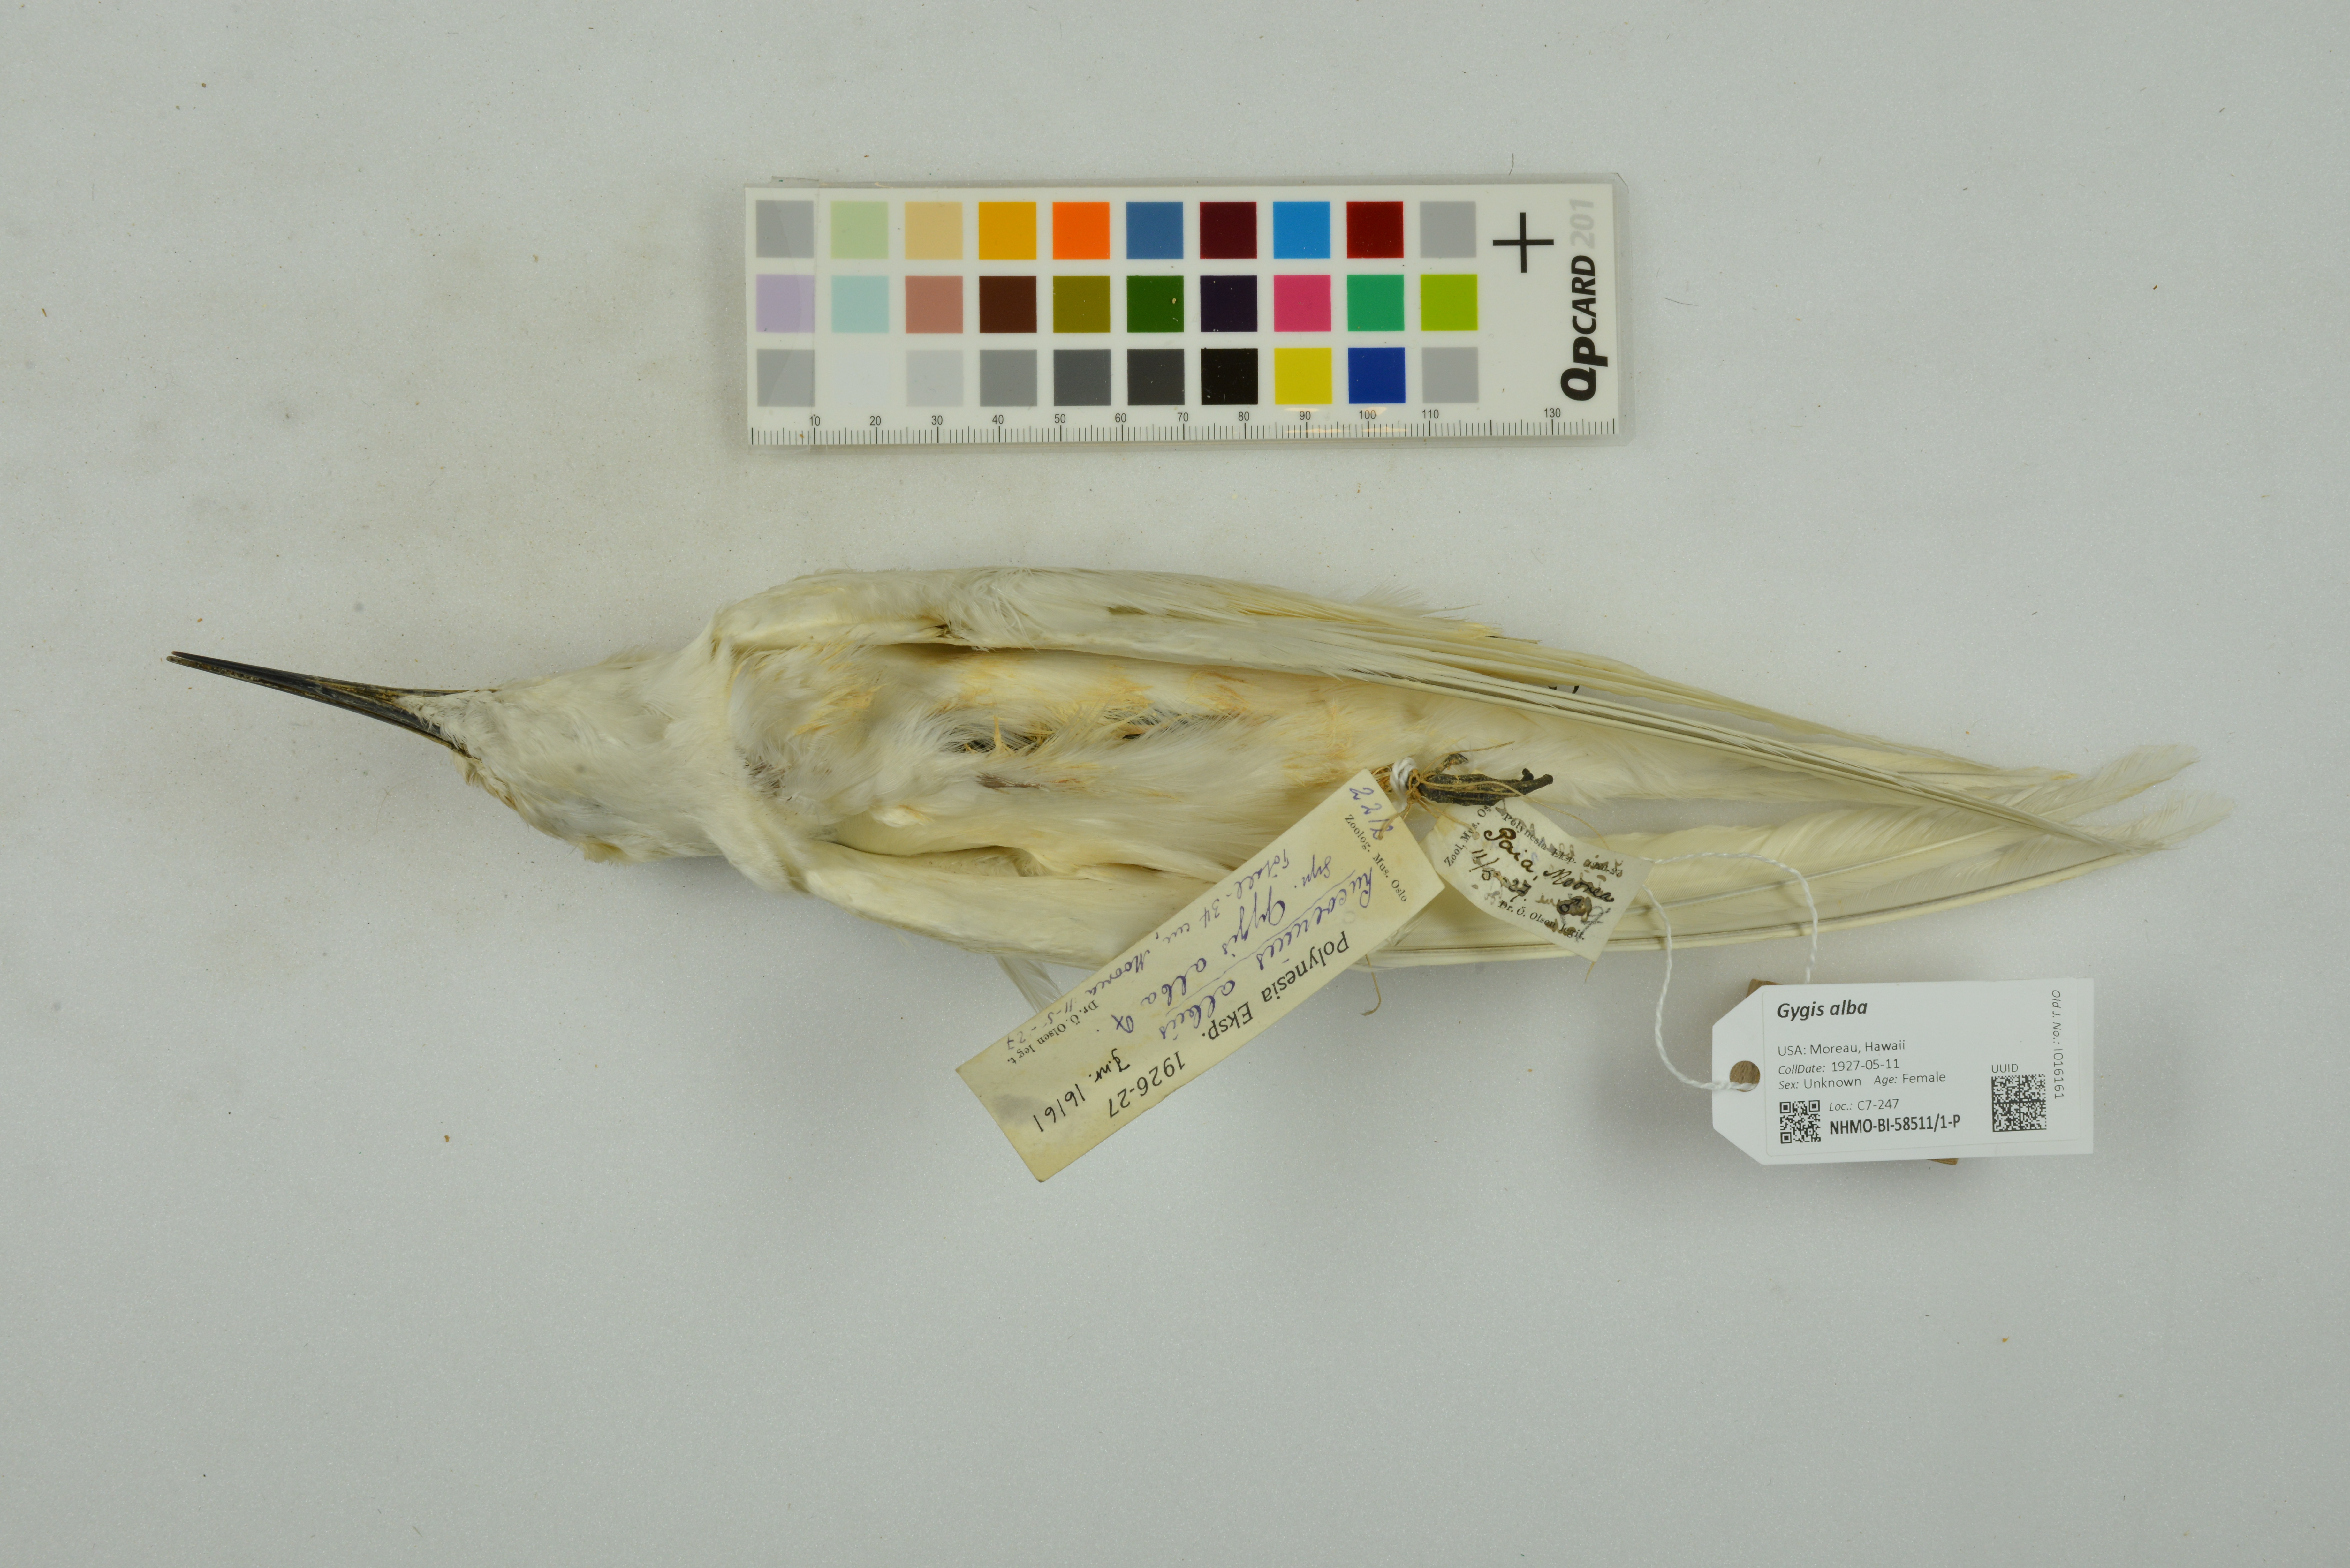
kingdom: Animalia
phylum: Chordata
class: Aves
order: Charadriiformes
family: Laridae
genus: Gygis
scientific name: Gygis alba
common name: White tern
